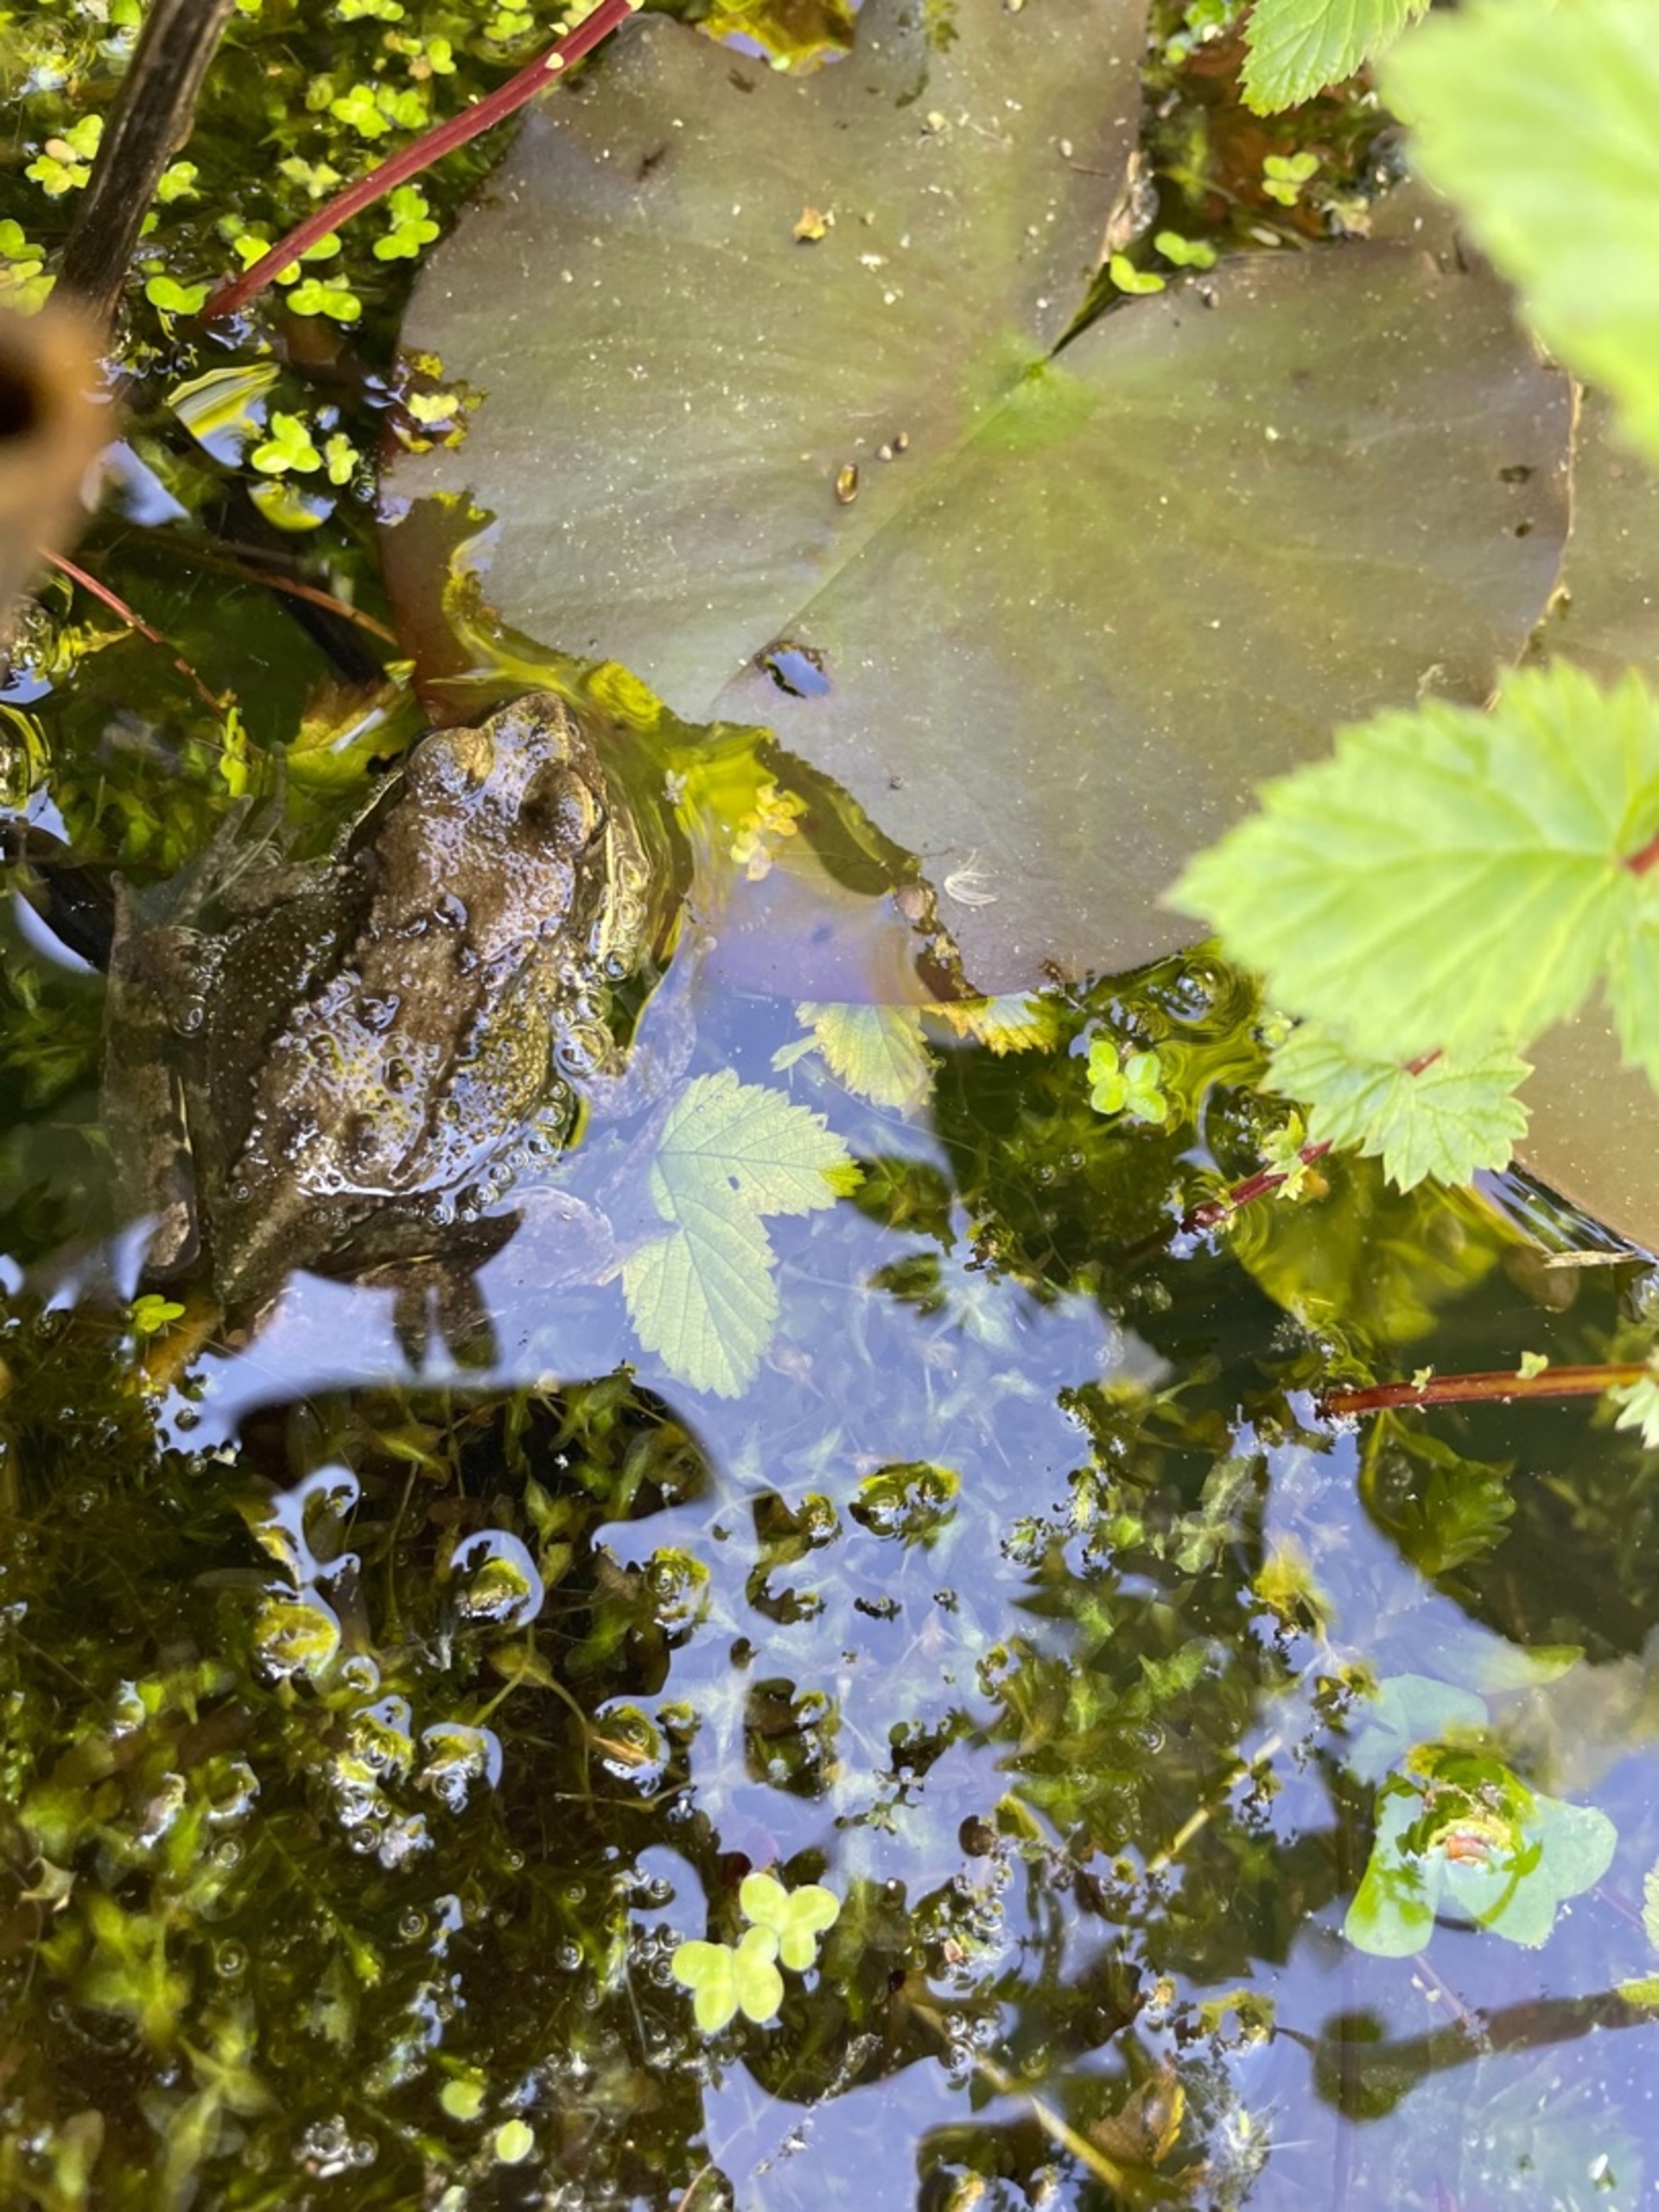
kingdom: Animalia
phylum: Chordata
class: Amphibia
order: Anura
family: Ranidae
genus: Rana
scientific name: Rana temporaria
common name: Butsnudet frø
